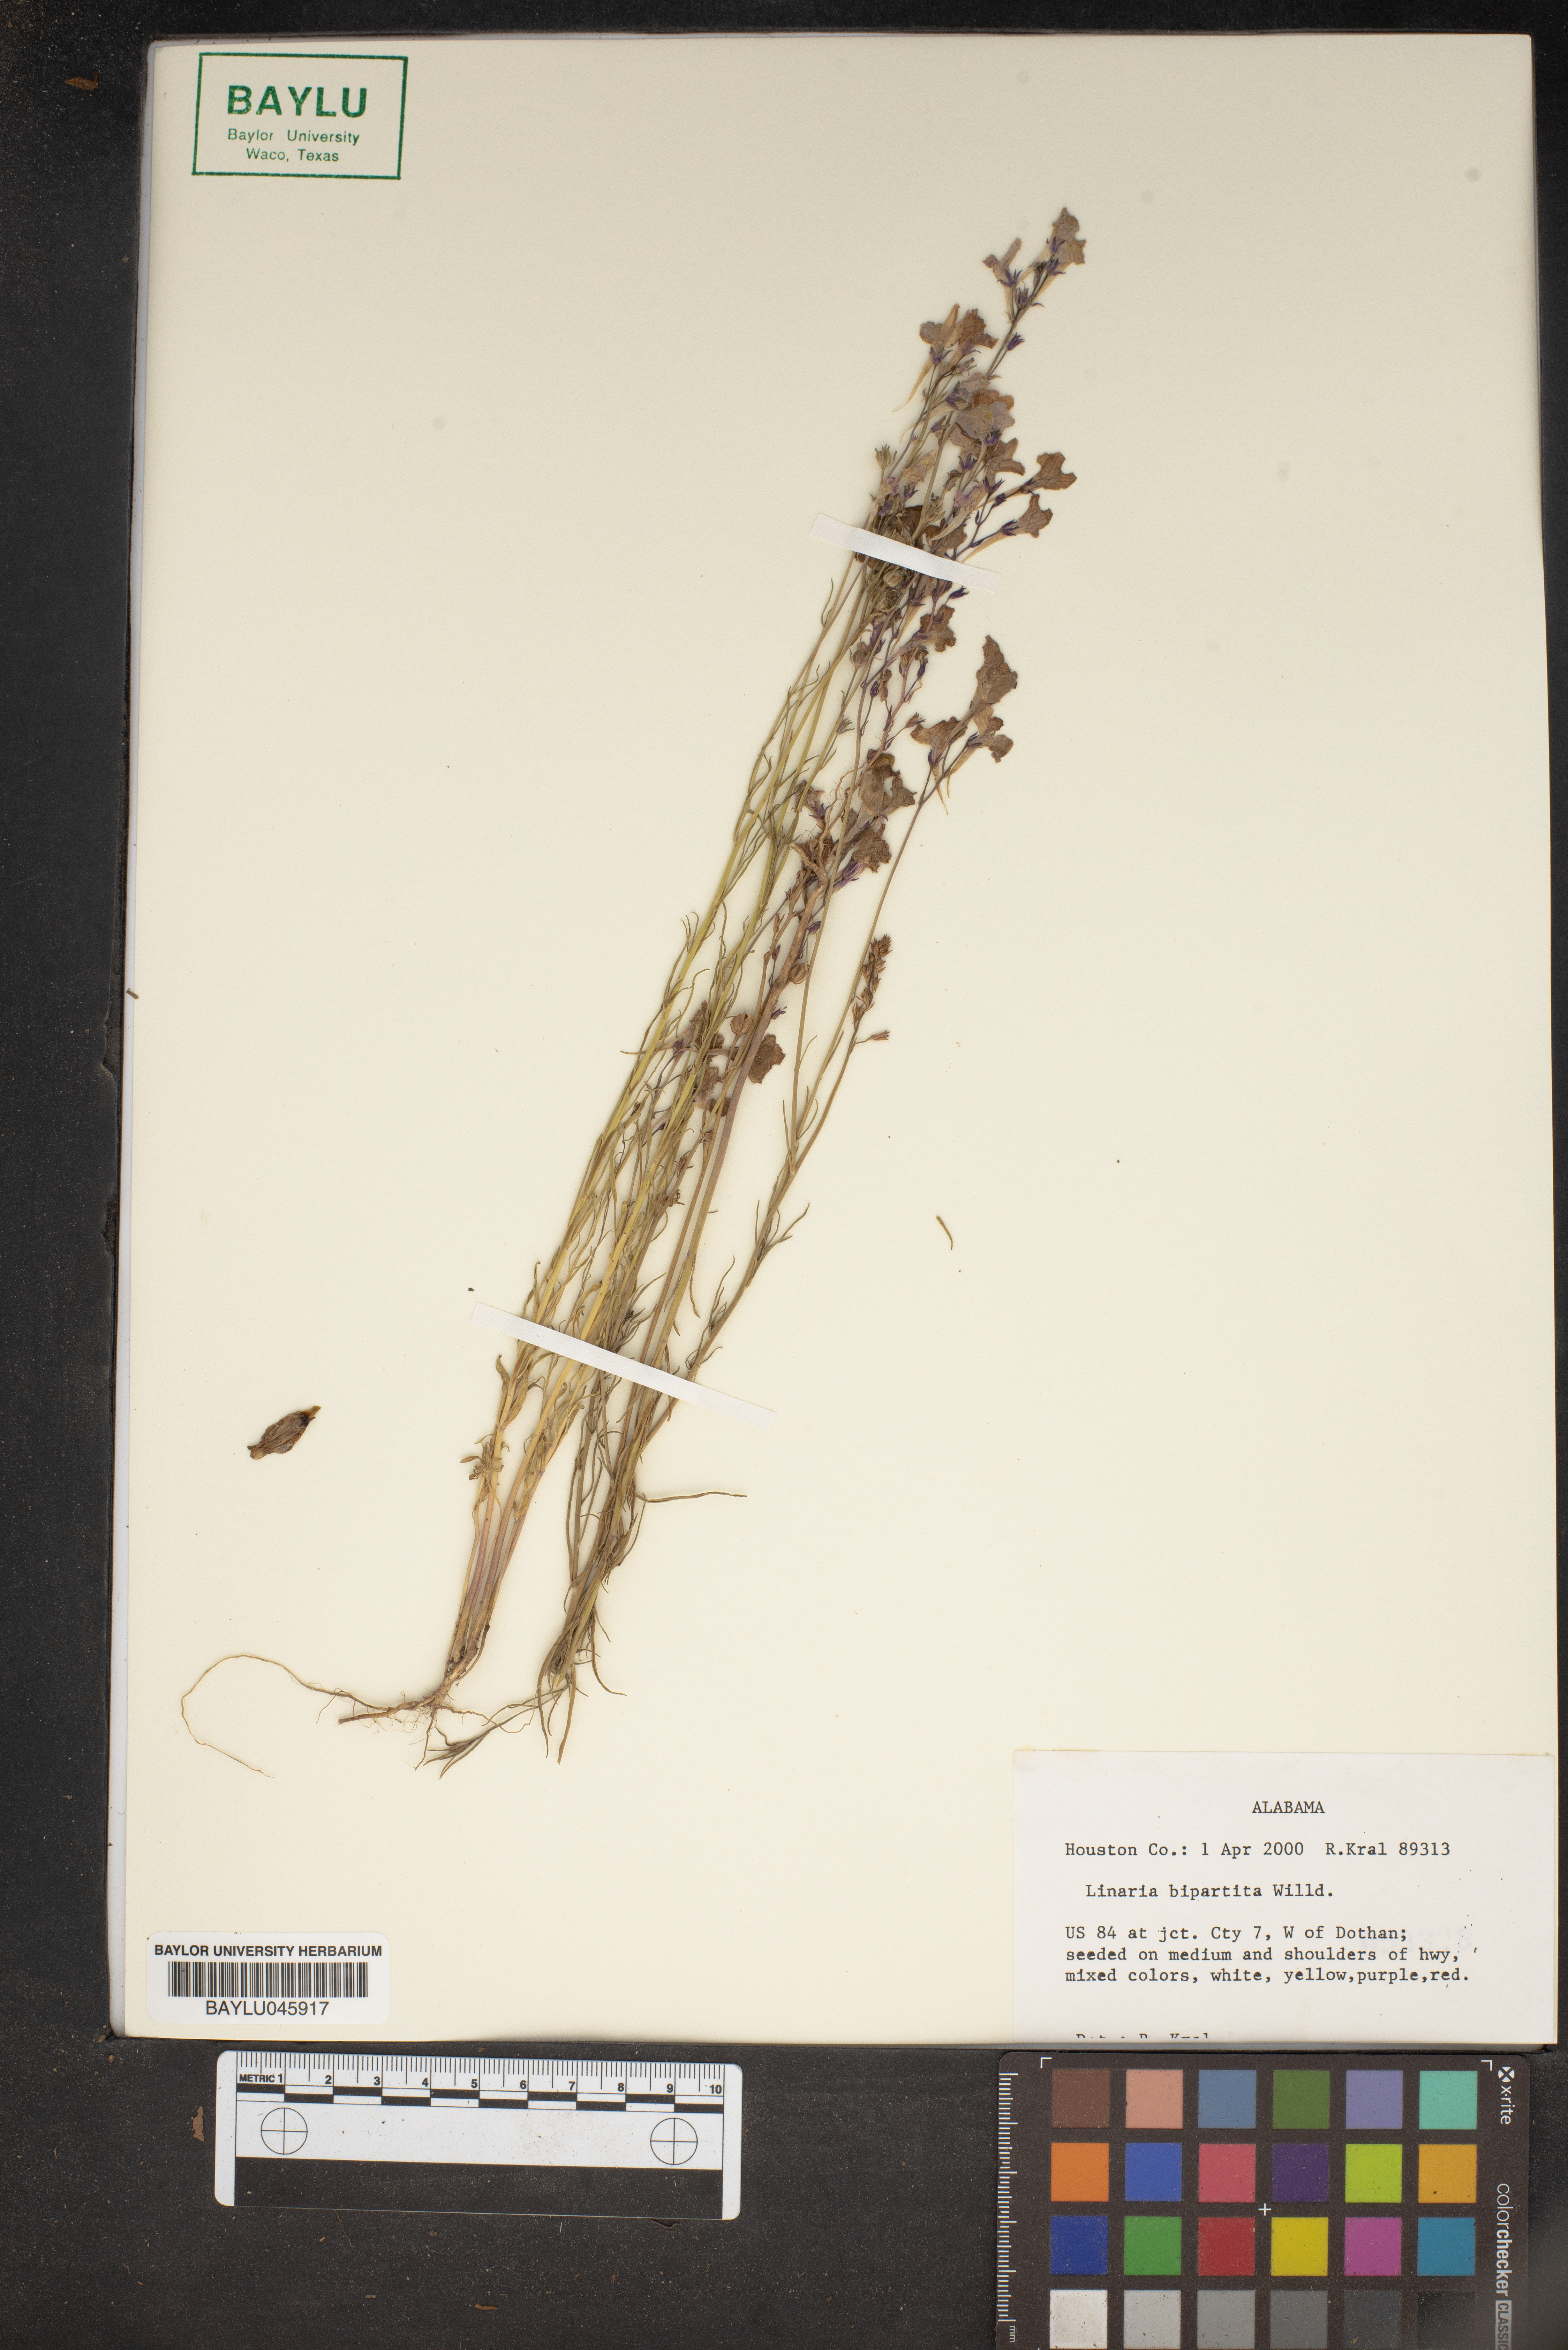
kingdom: Plantae
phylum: Tracheophyta
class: Magnoliopsida
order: Lamiales
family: Plantaginaceae
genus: Linaria
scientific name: Linaria bipartita
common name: Clovenlip toadflax
